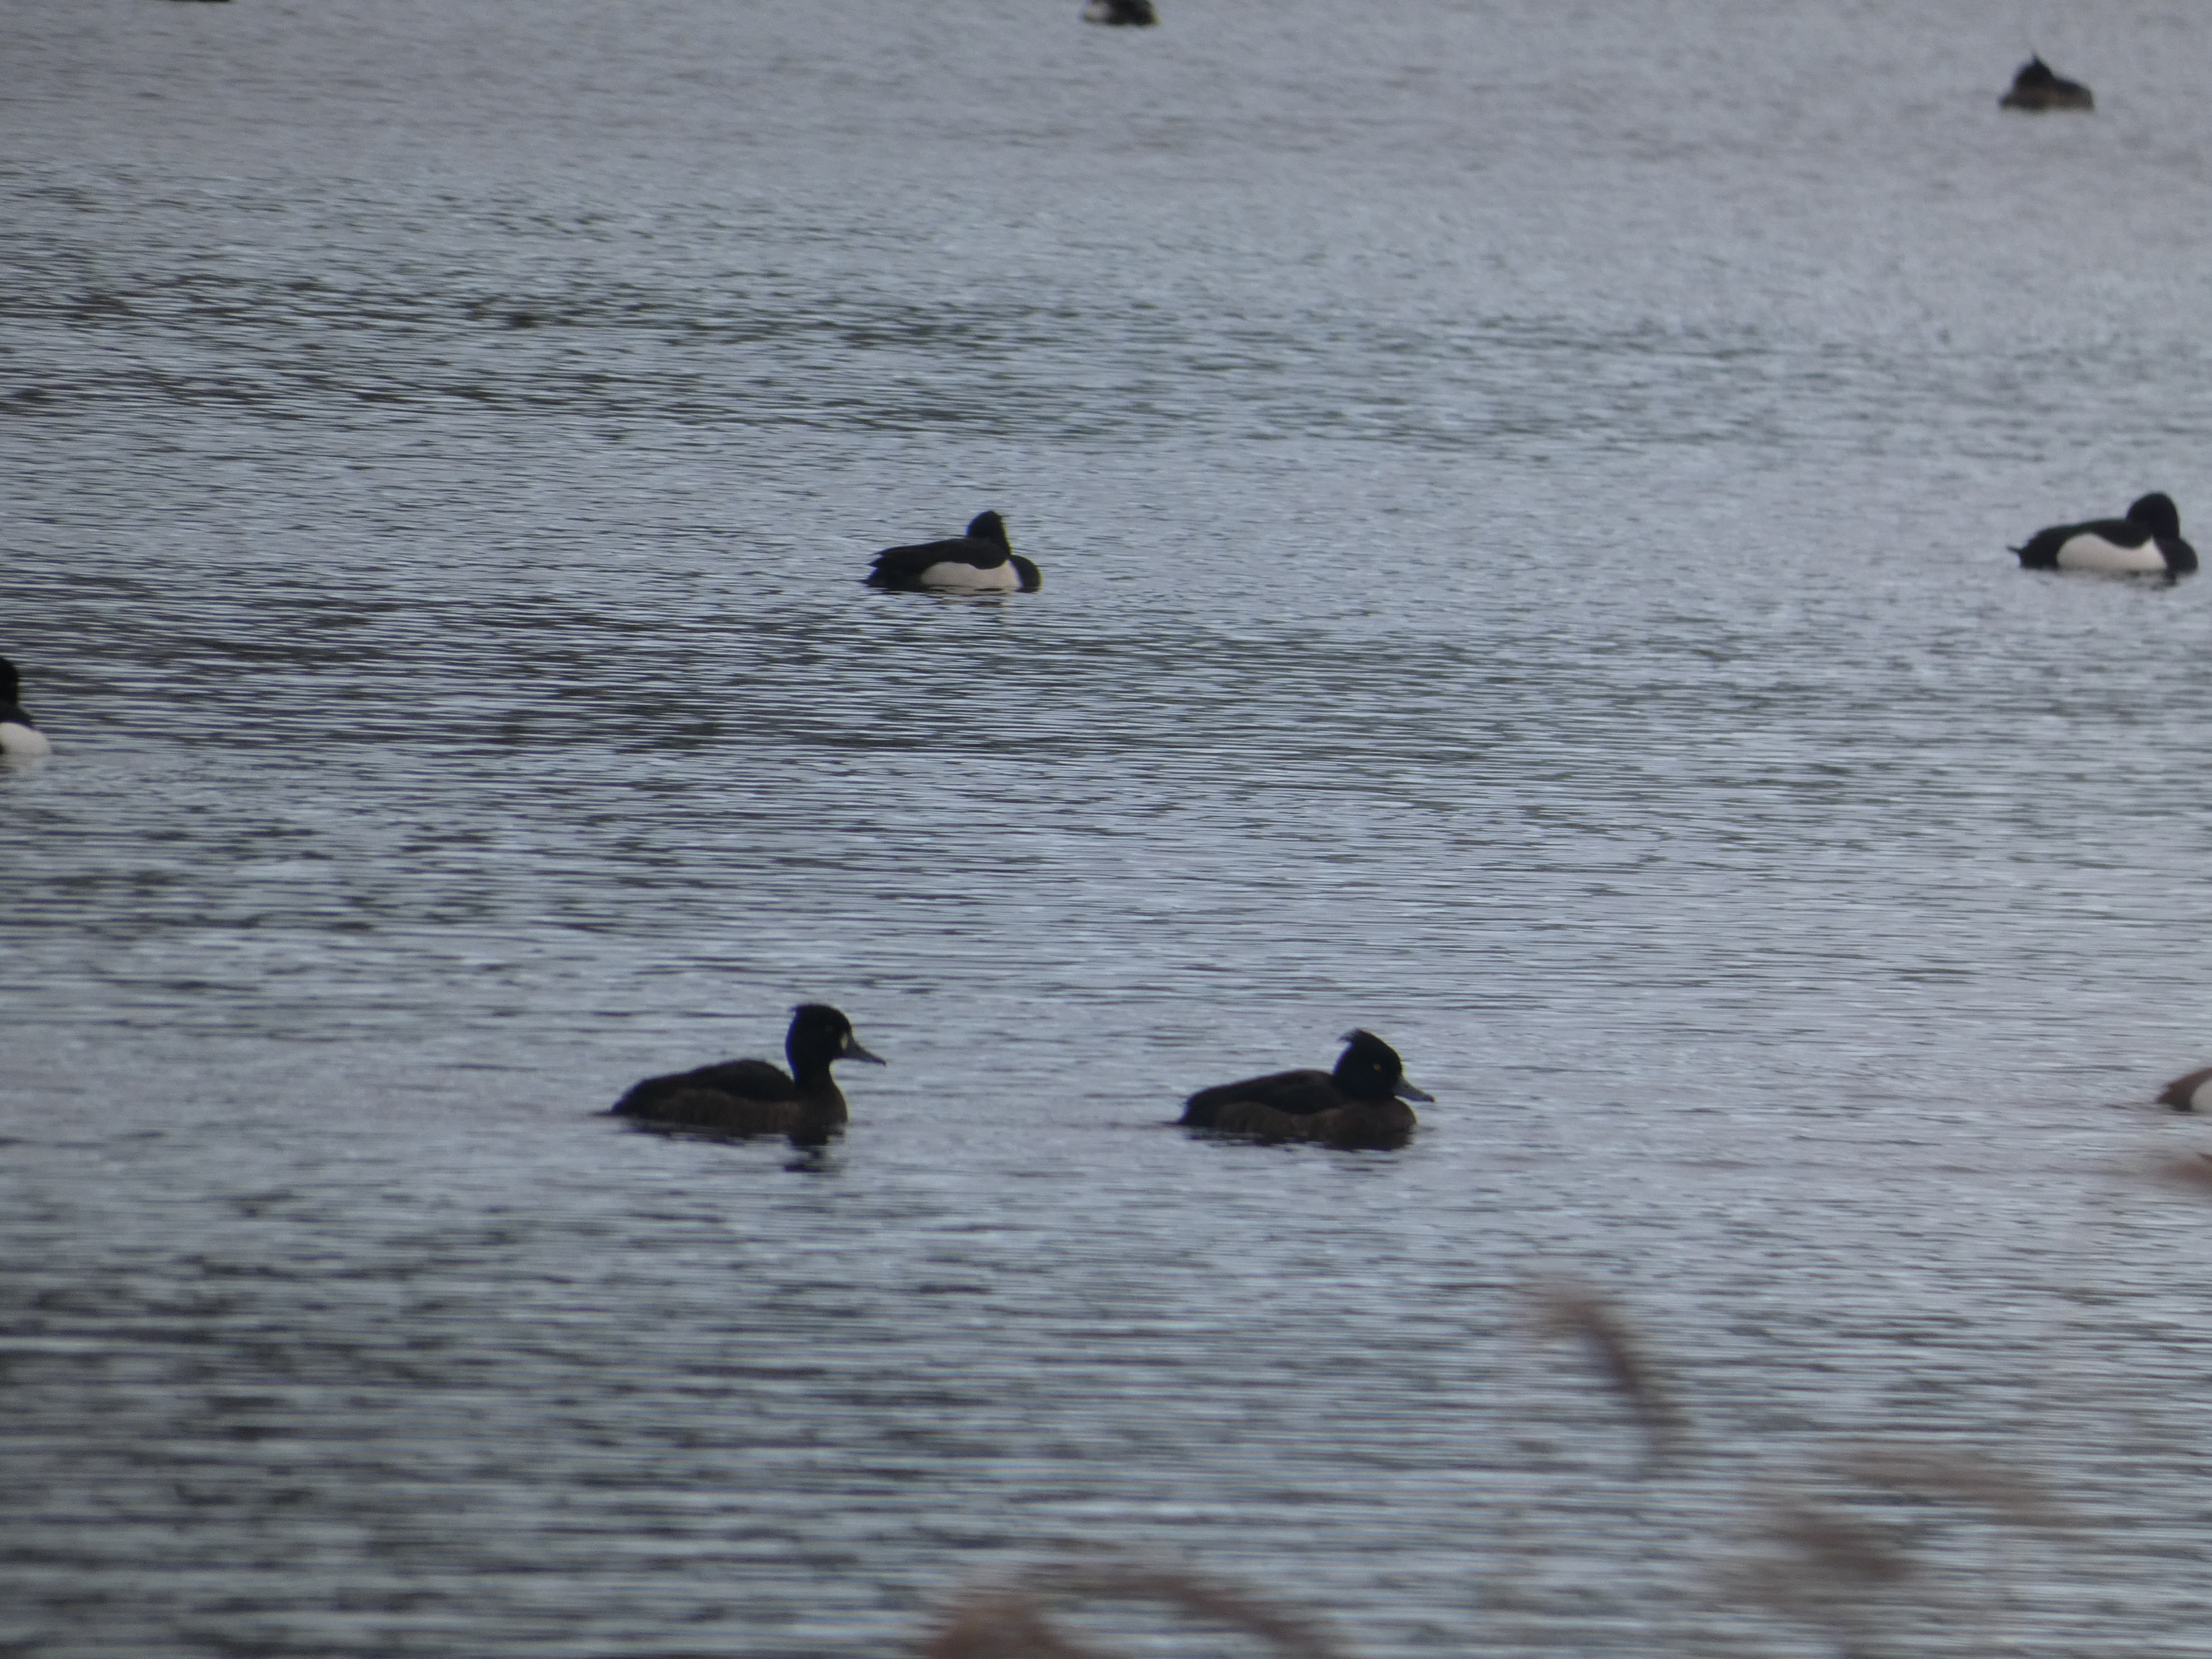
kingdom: Animalia
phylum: Chordata
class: Aves
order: Anseriformes
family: Anatidae
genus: Aythya
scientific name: Aythya fuligula
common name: Troldand
